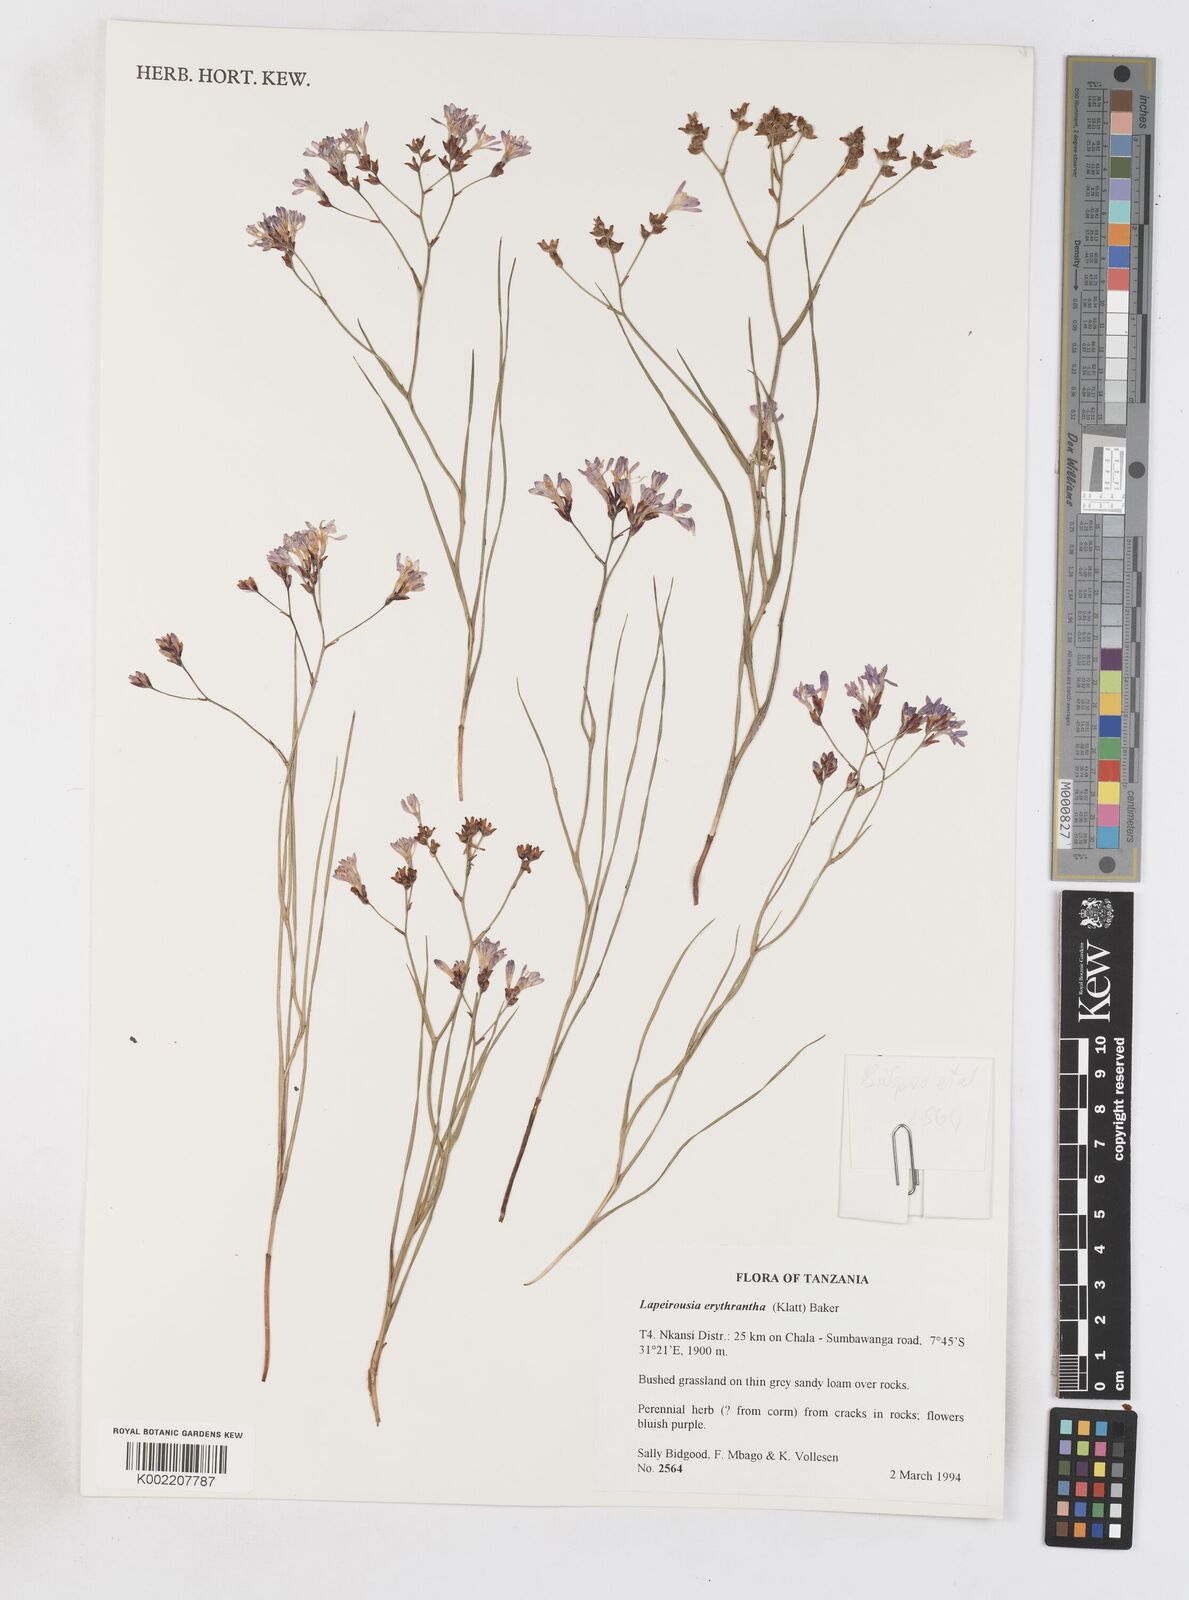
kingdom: Plantae
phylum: Tracheophyta
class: Liliopsida
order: Asparagales
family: Iridaceae
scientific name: Iridaceae
